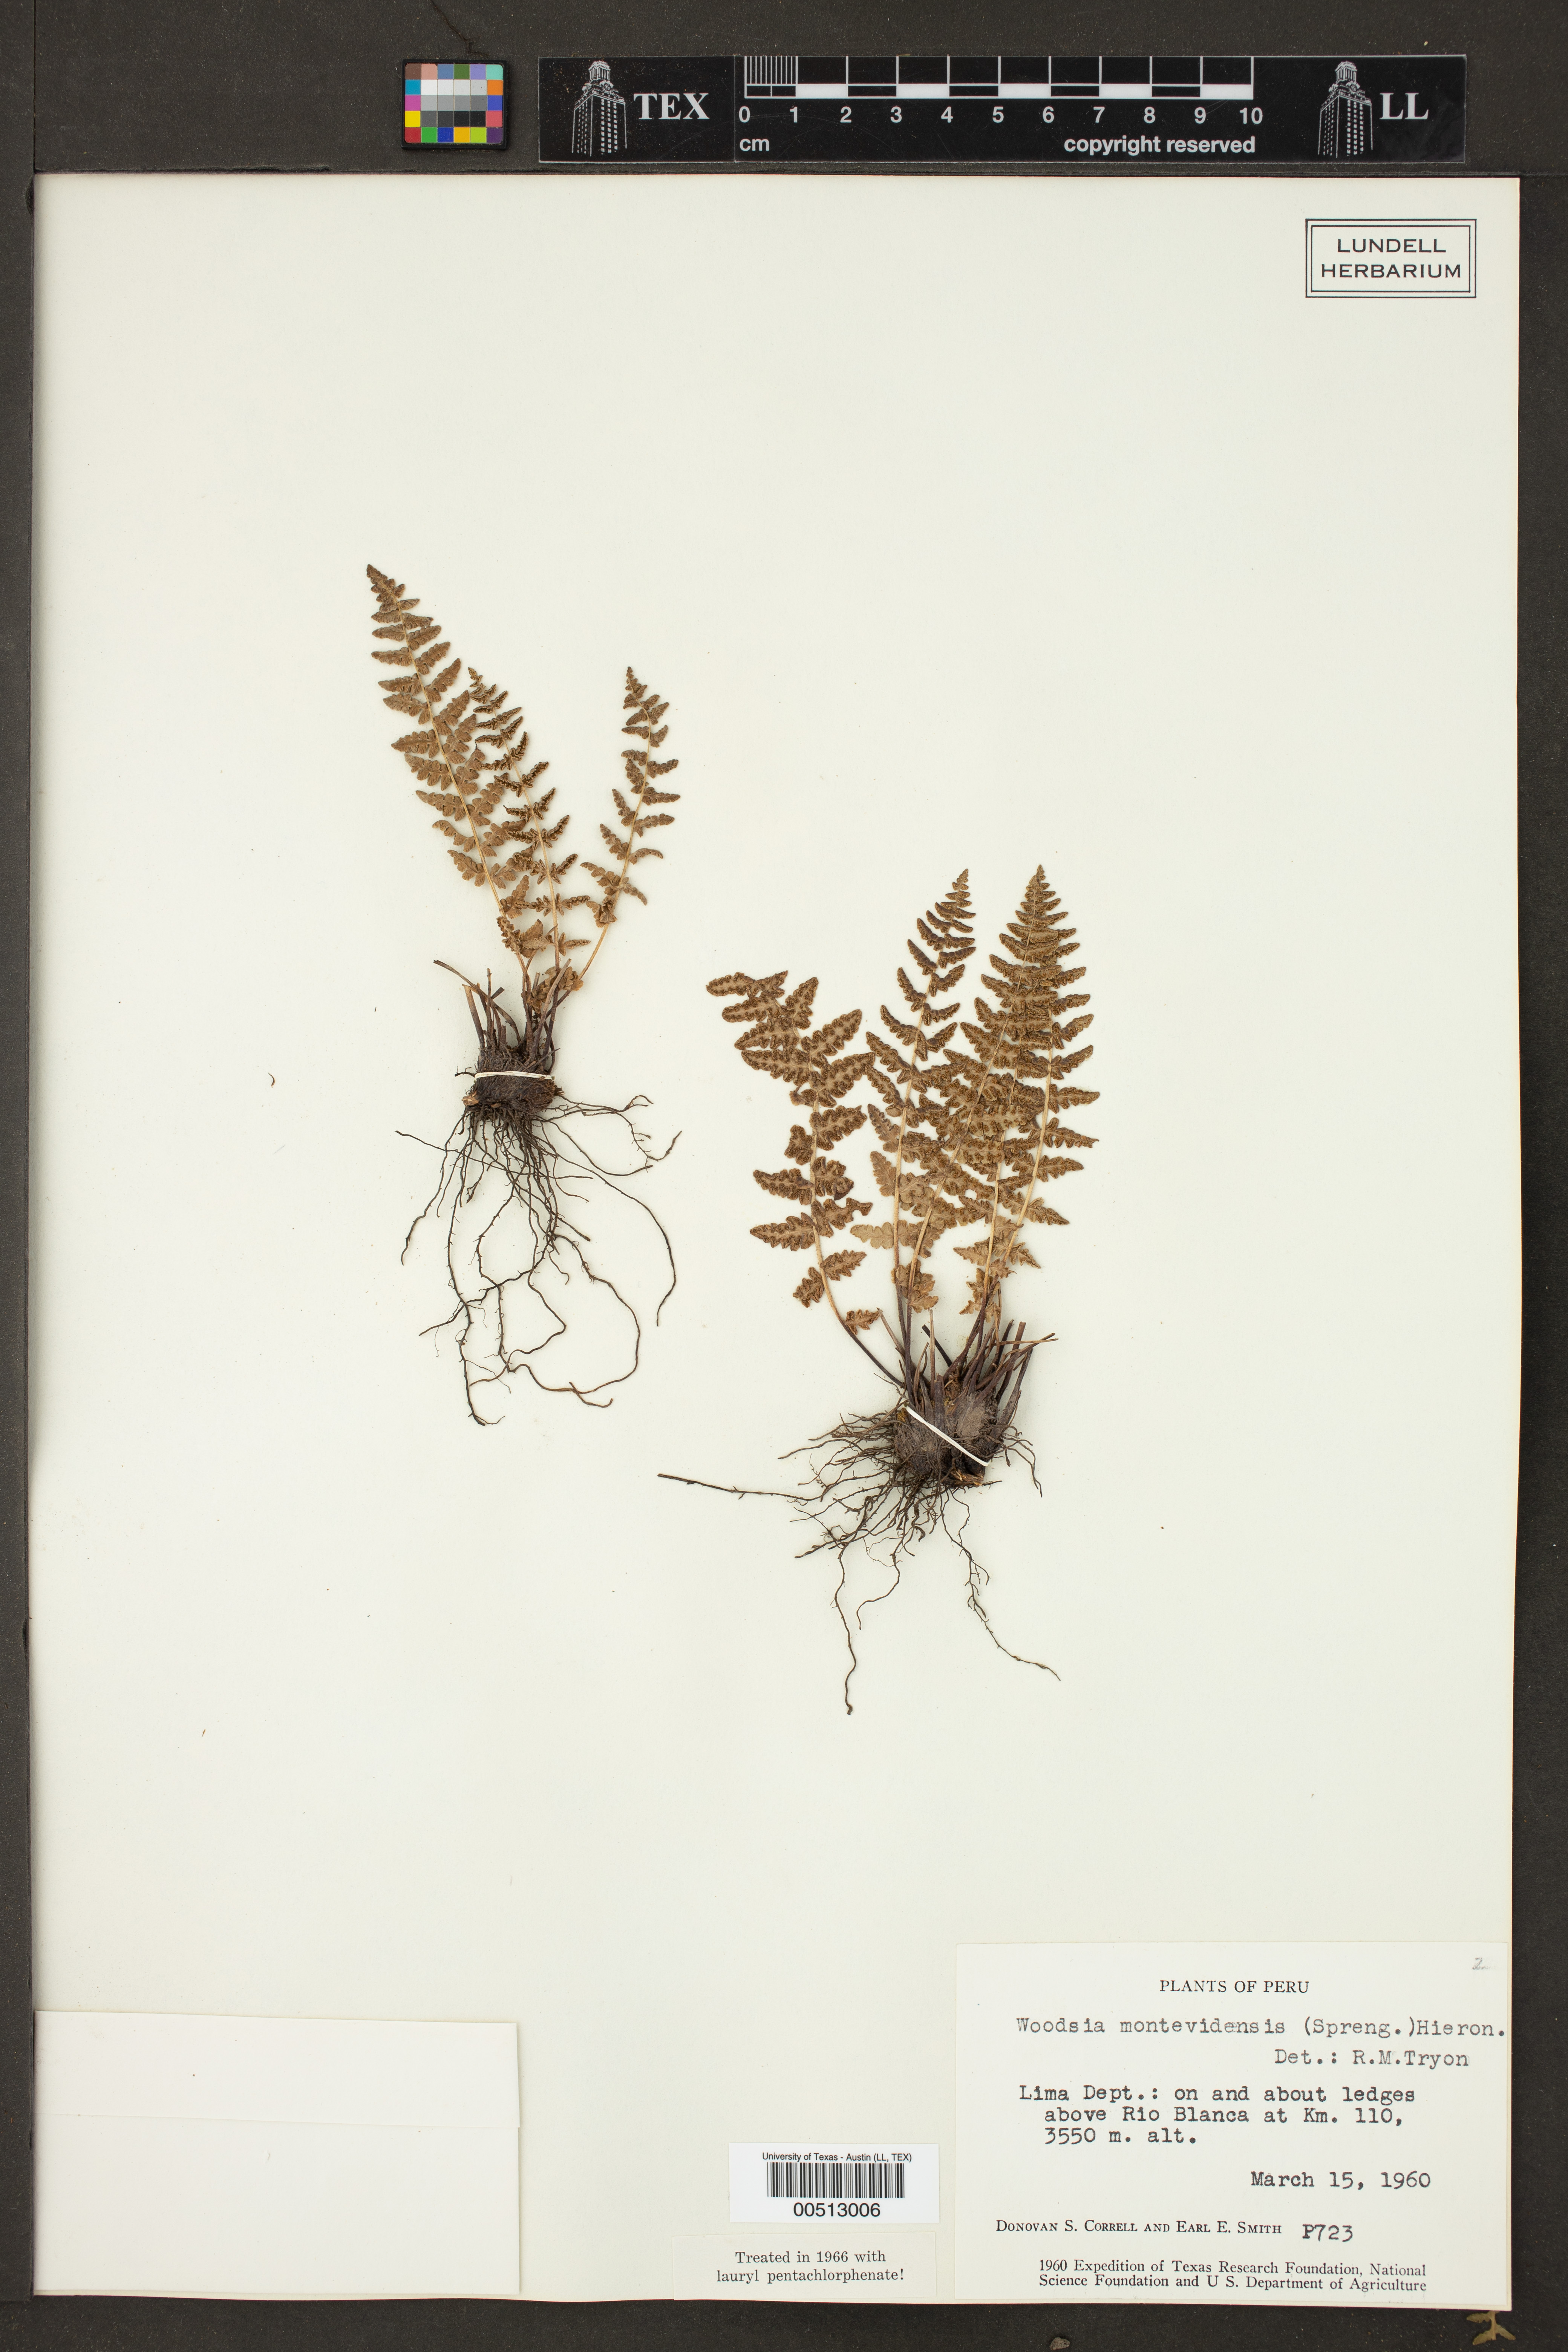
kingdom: Plantae
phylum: Tracheophyta
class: Polypodiopsida
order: Polypodiales
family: Woodsiaceae
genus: Physematium
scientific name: Physematium montevidense
